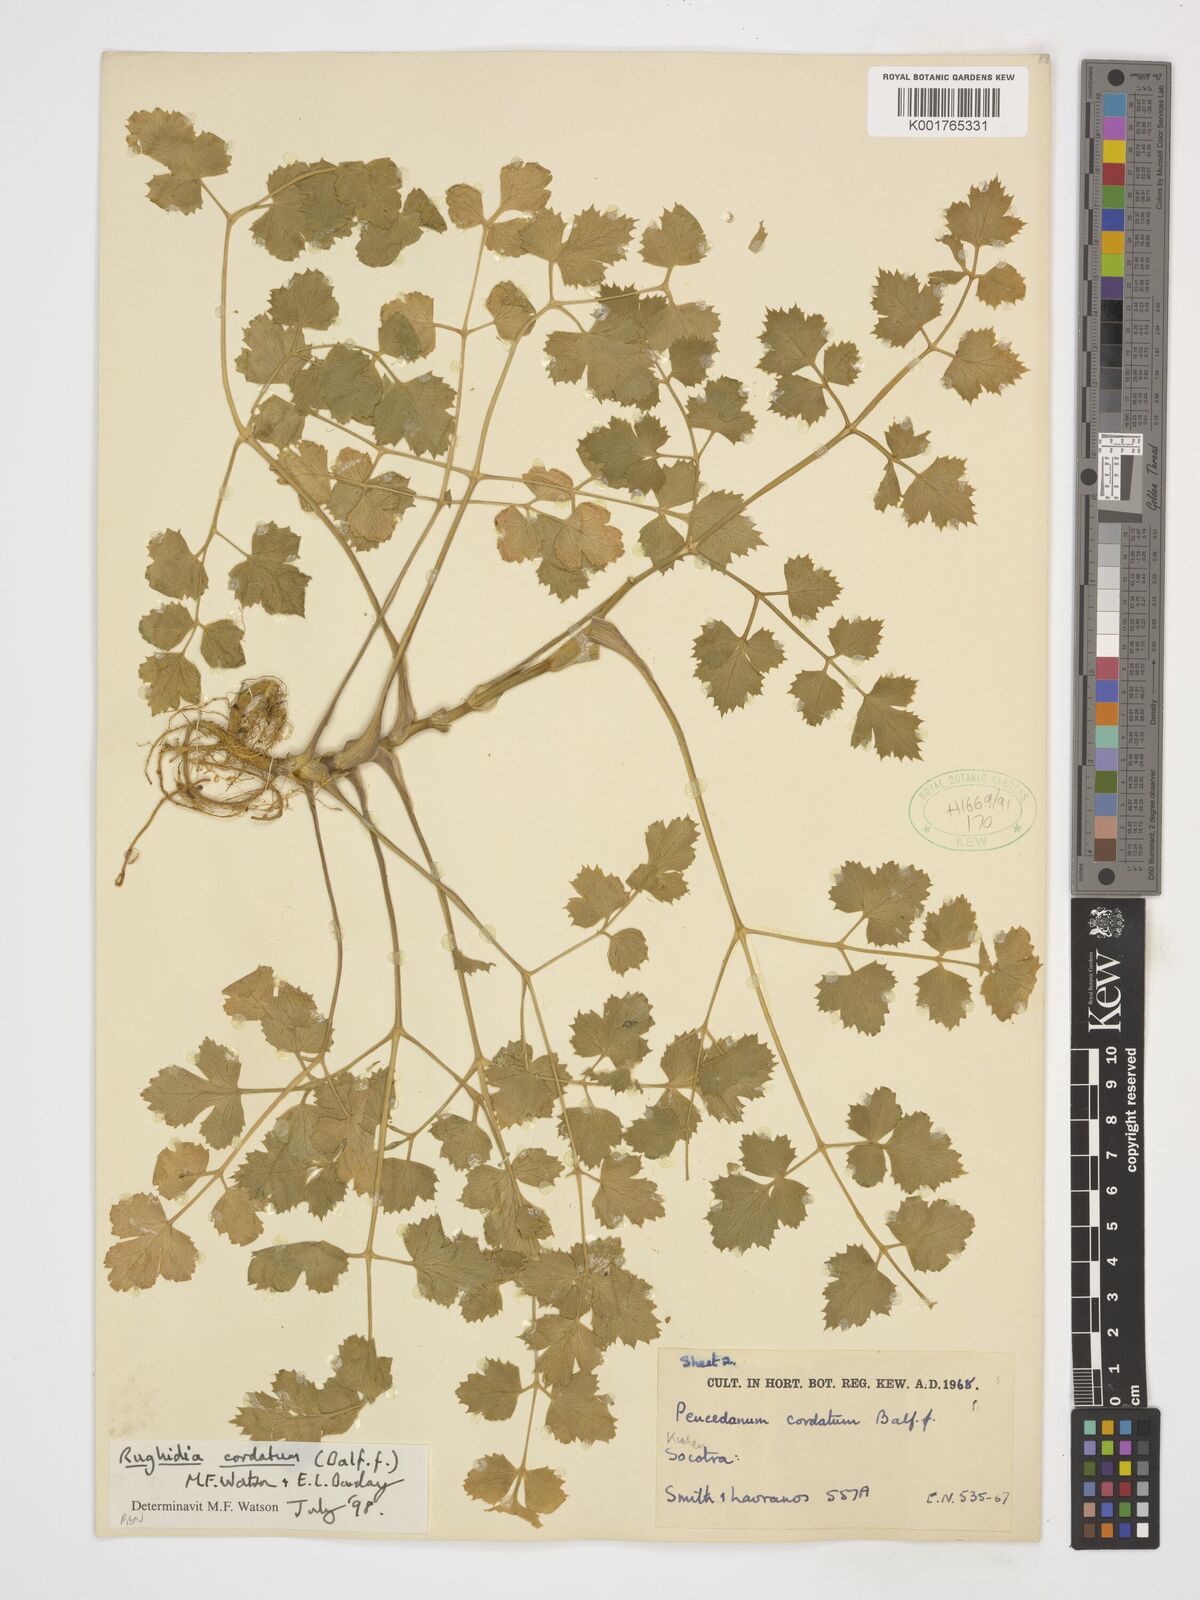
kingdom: Plantae
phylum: Tracheophyta
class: Magnoliopsida
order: Apiales
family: Apiaceae
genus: Rughidia
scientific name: Rughidia cordata
